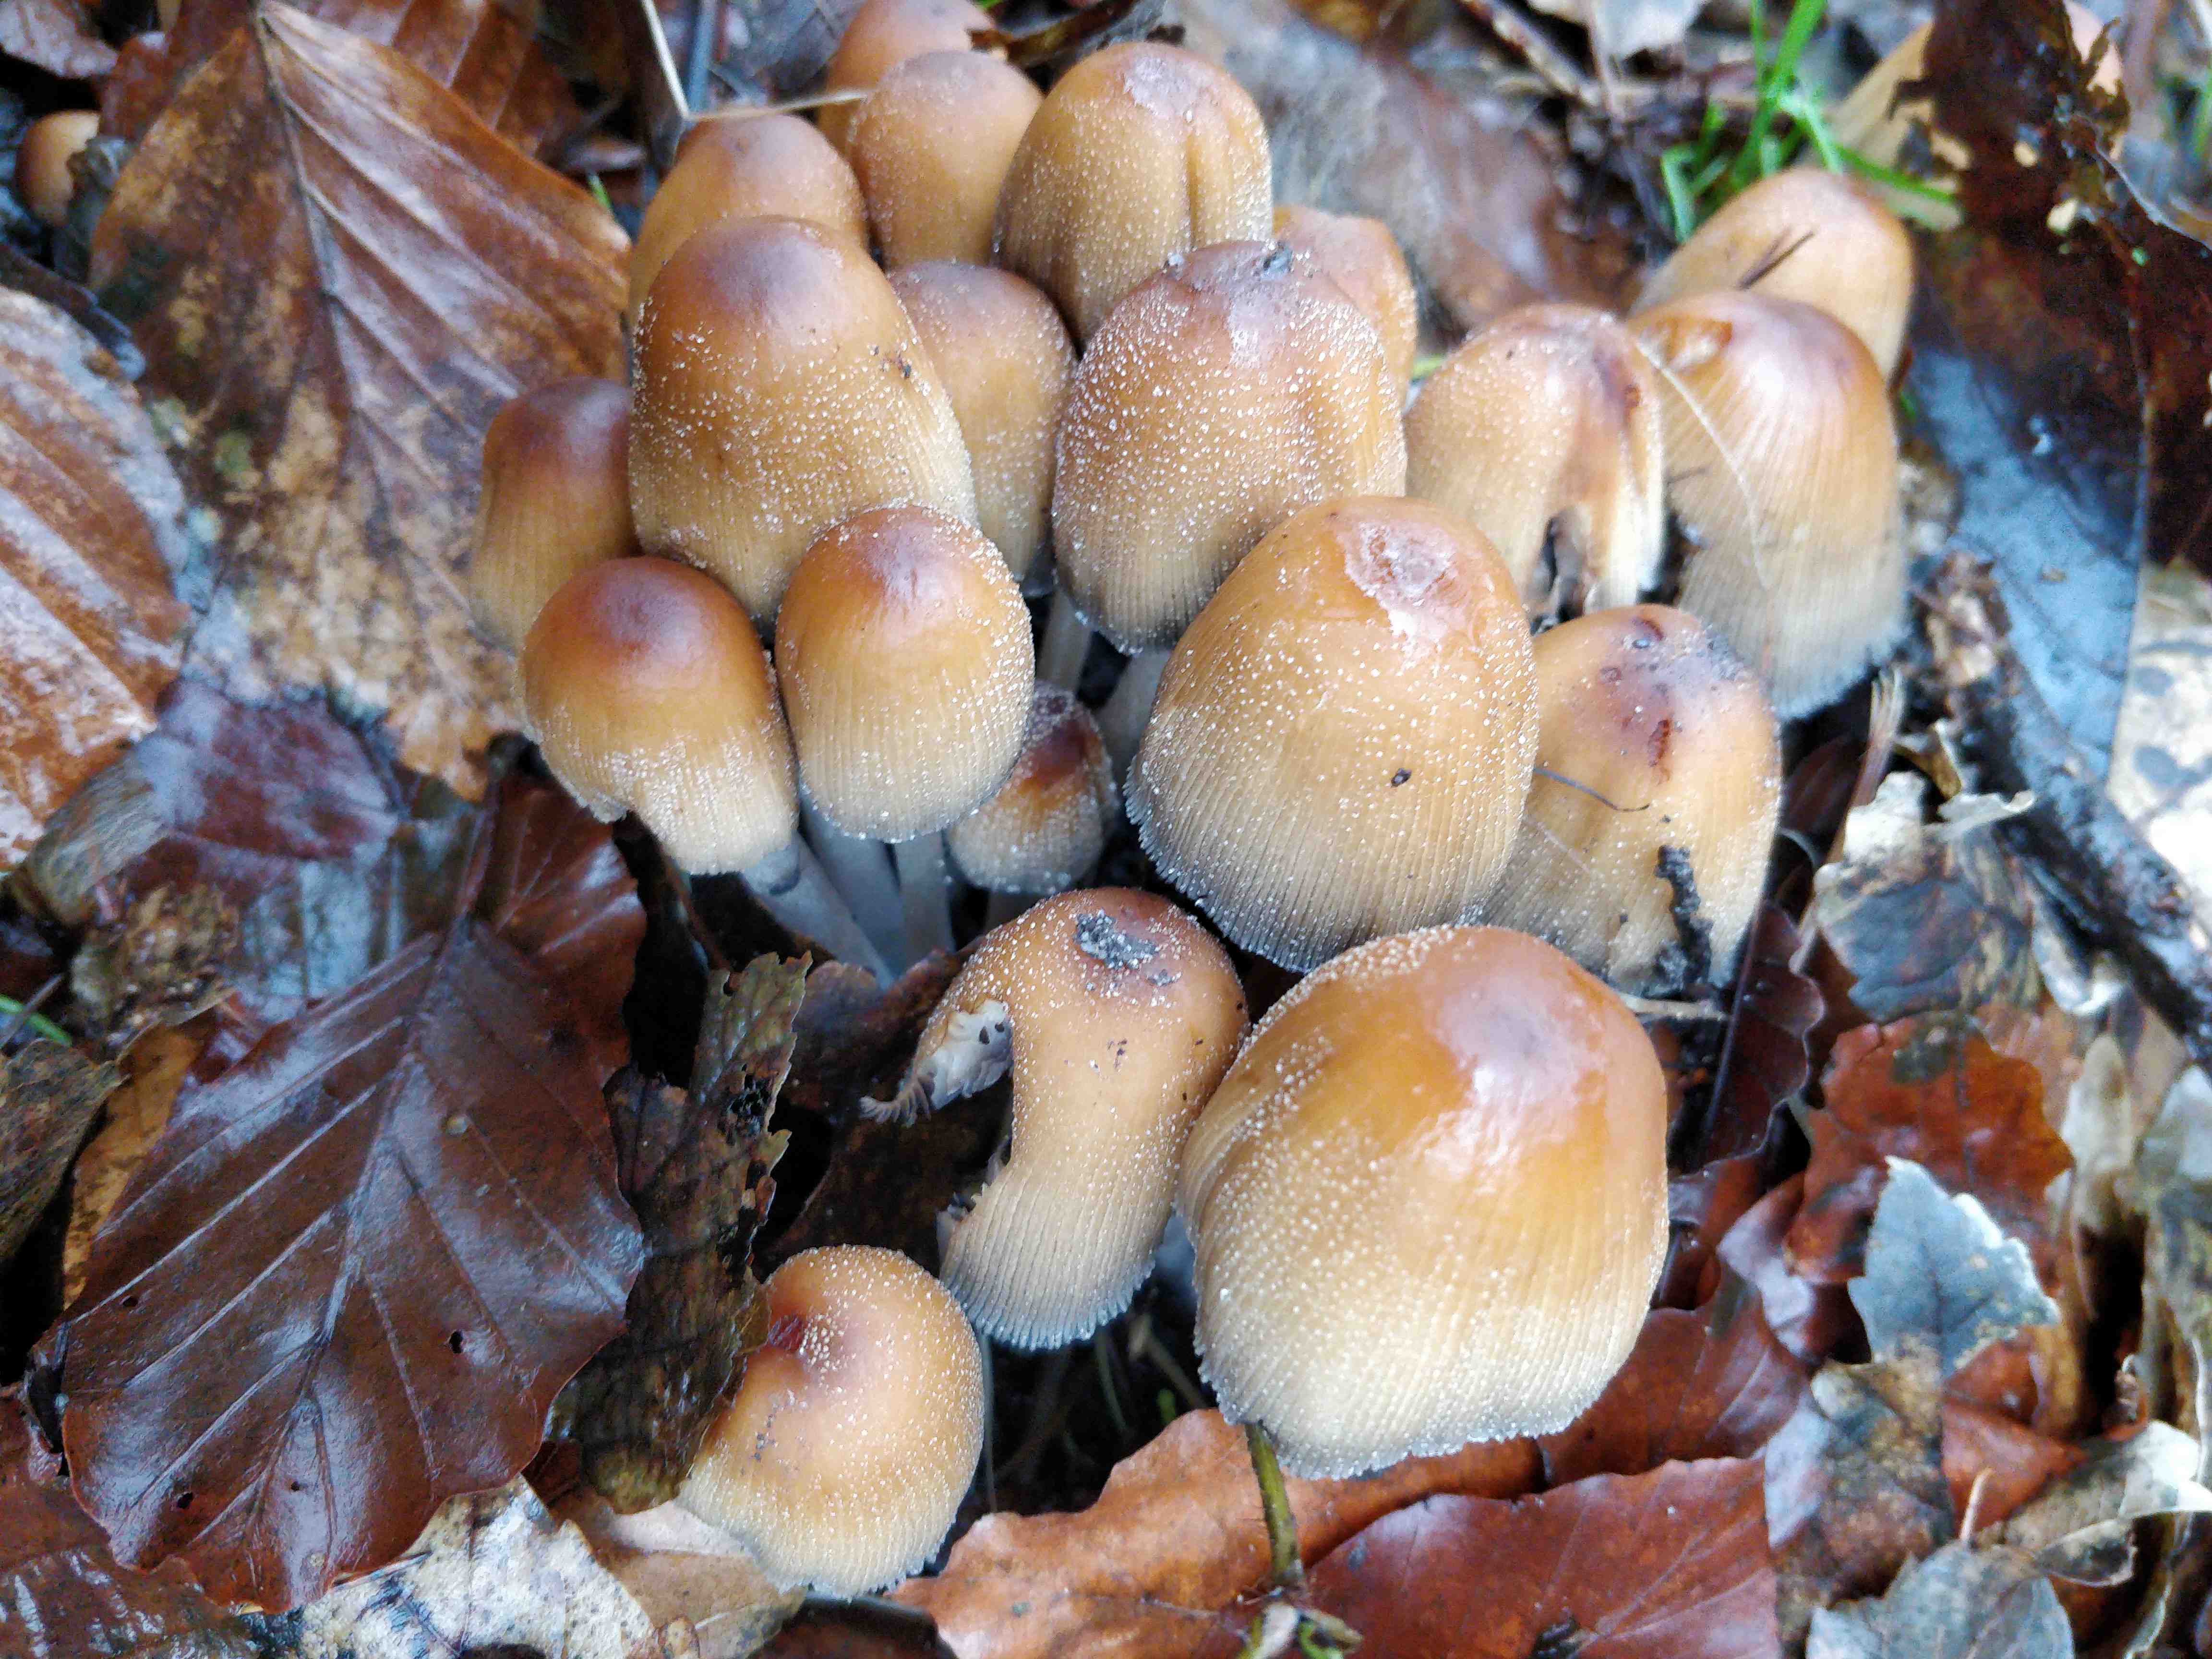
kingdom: Fungi
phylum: Basidiomycota
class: Agaricomycetes
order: Agaricales
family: Psathyrellaceae
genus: Coprinellus
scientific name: Coprinellus micaceus
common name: glimmer-blækhat
